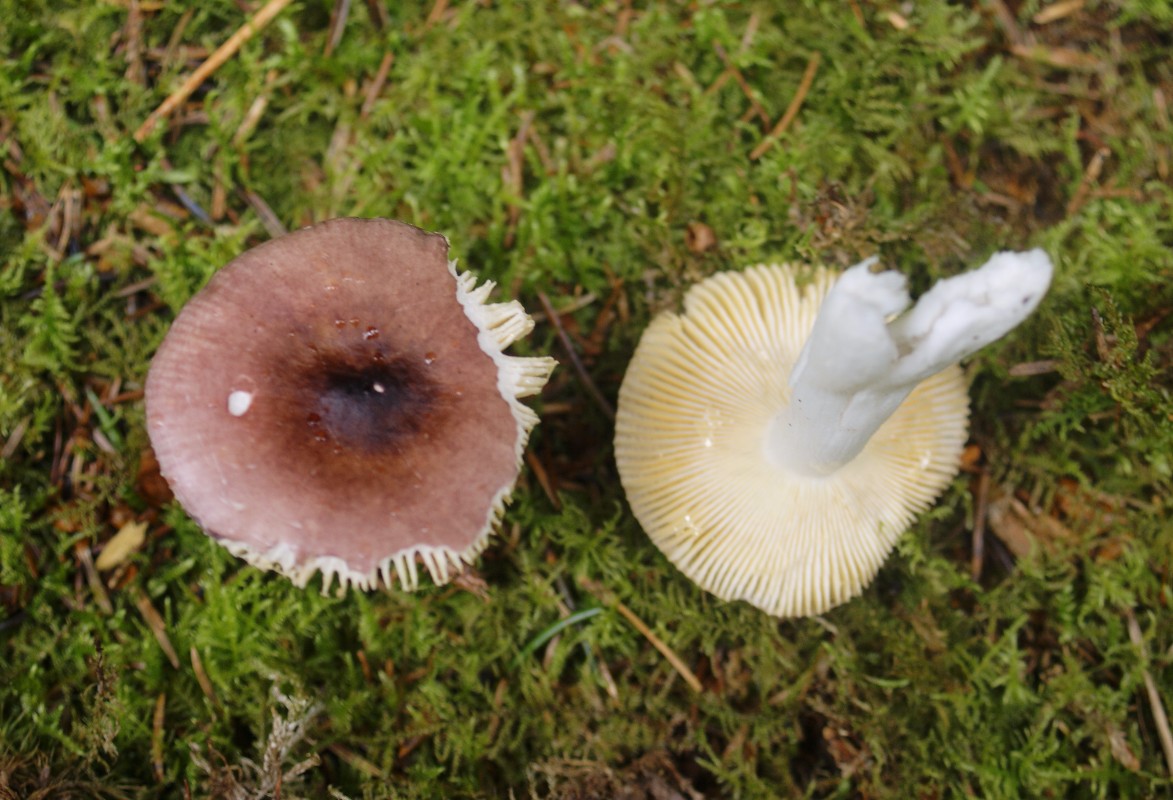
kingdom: Fungi
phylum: Basidiomycota
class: Agaricomycetes
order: Russulales
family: Russulaceae
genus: Russula
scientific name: Russula nauseosa
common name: spinkel skørhat
